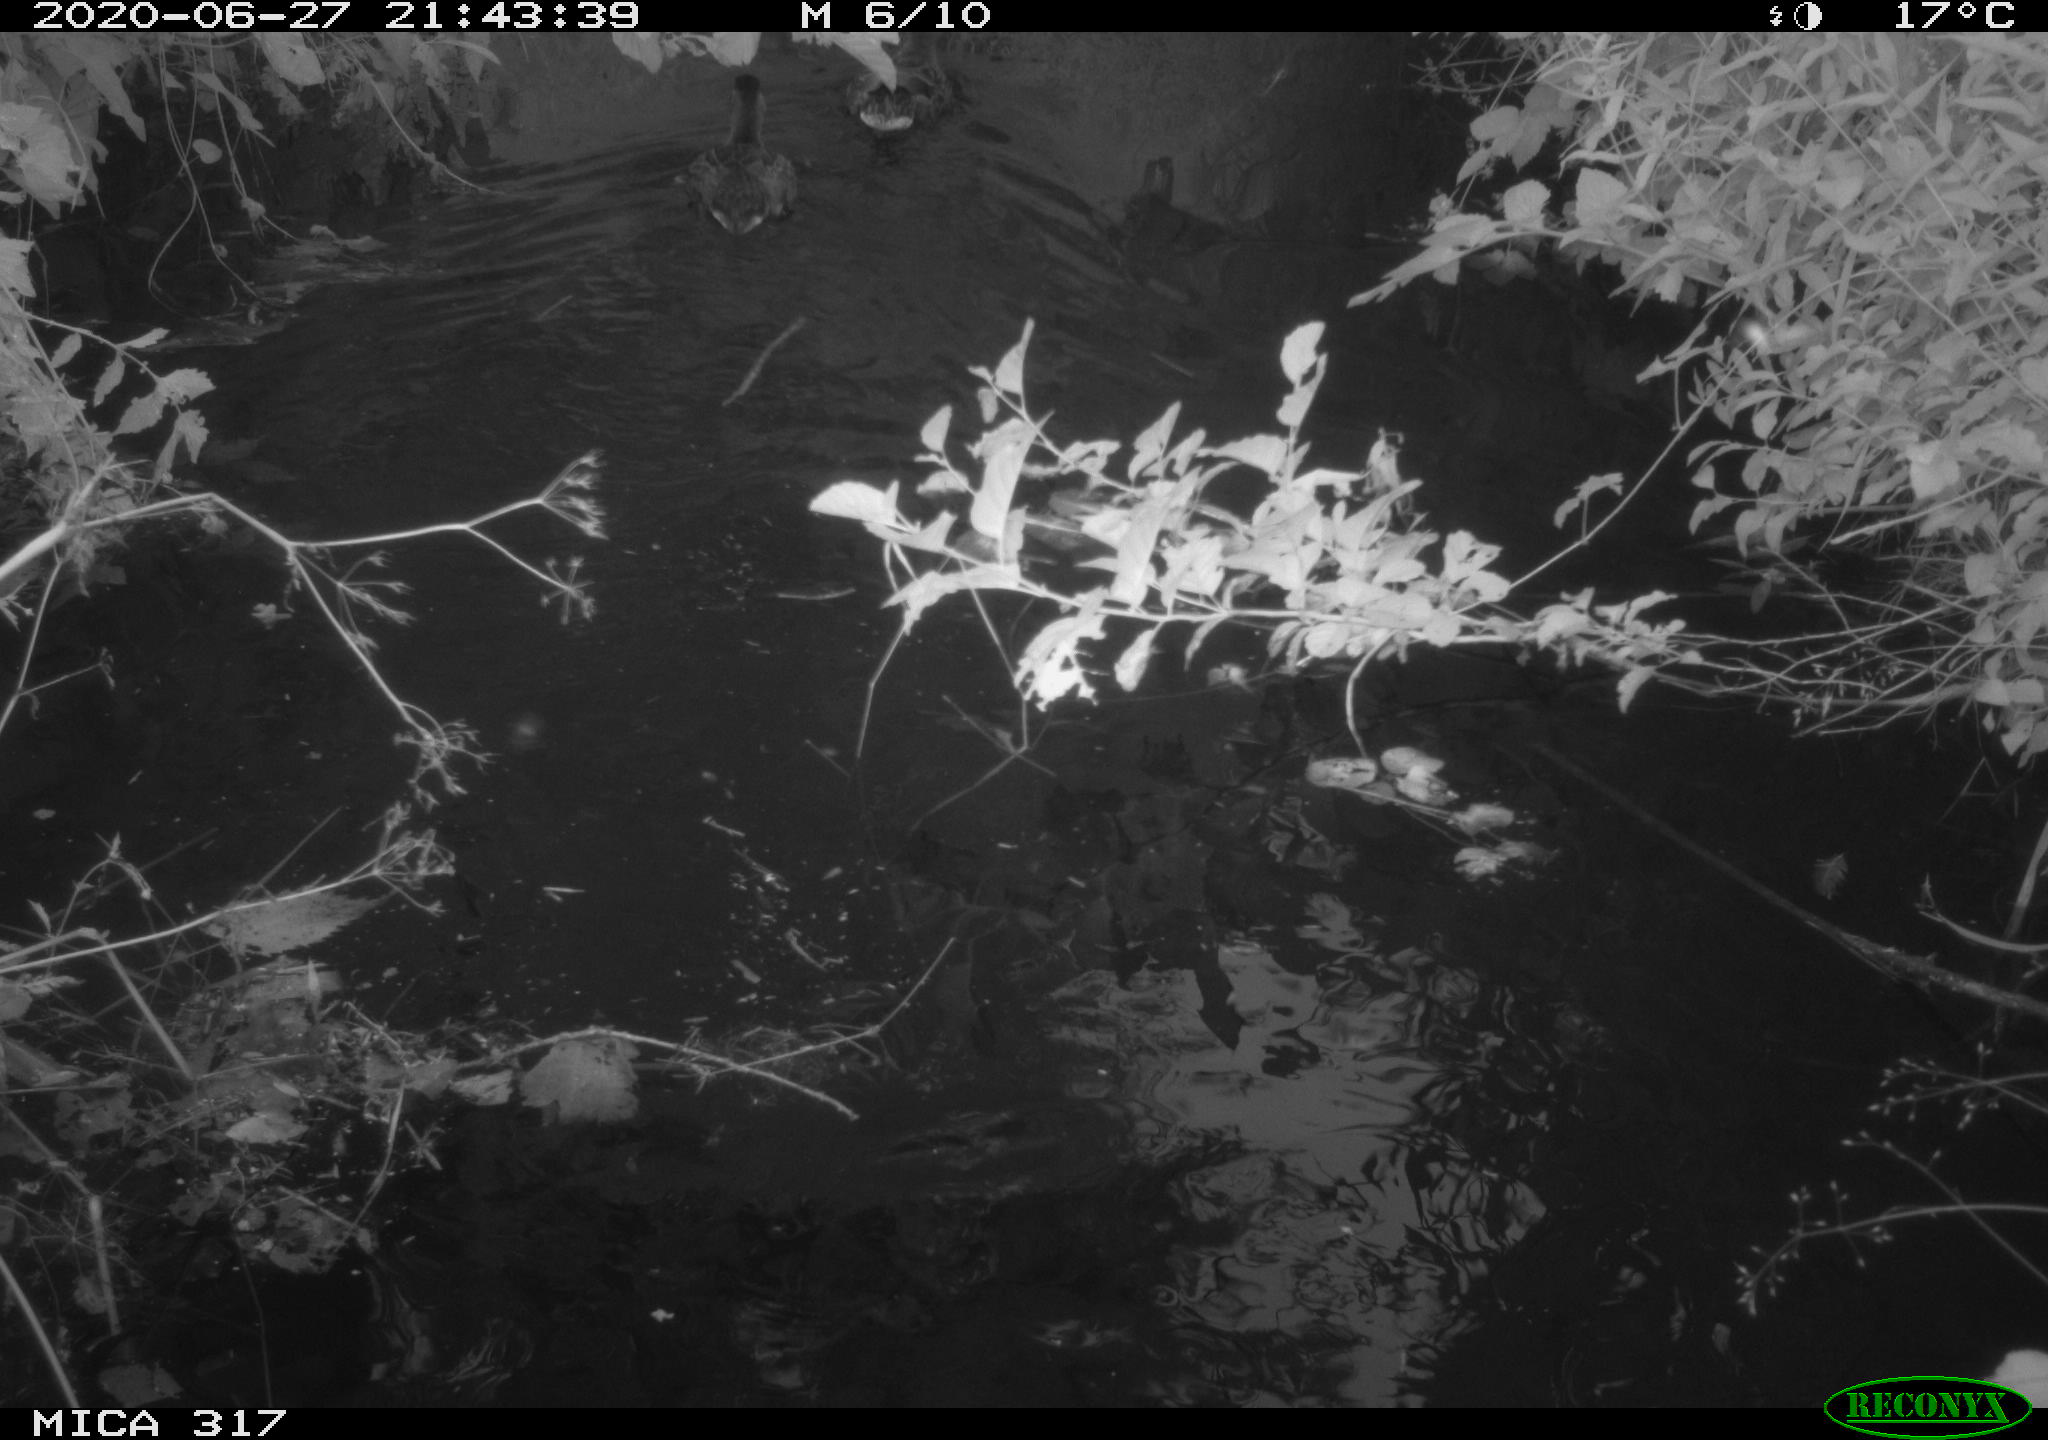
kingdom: Animalia
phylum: Chordata
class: Aves
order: Anseriformes
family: Anatidae
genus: Anas
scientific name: Anas platyrhynchos
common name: Mallard
